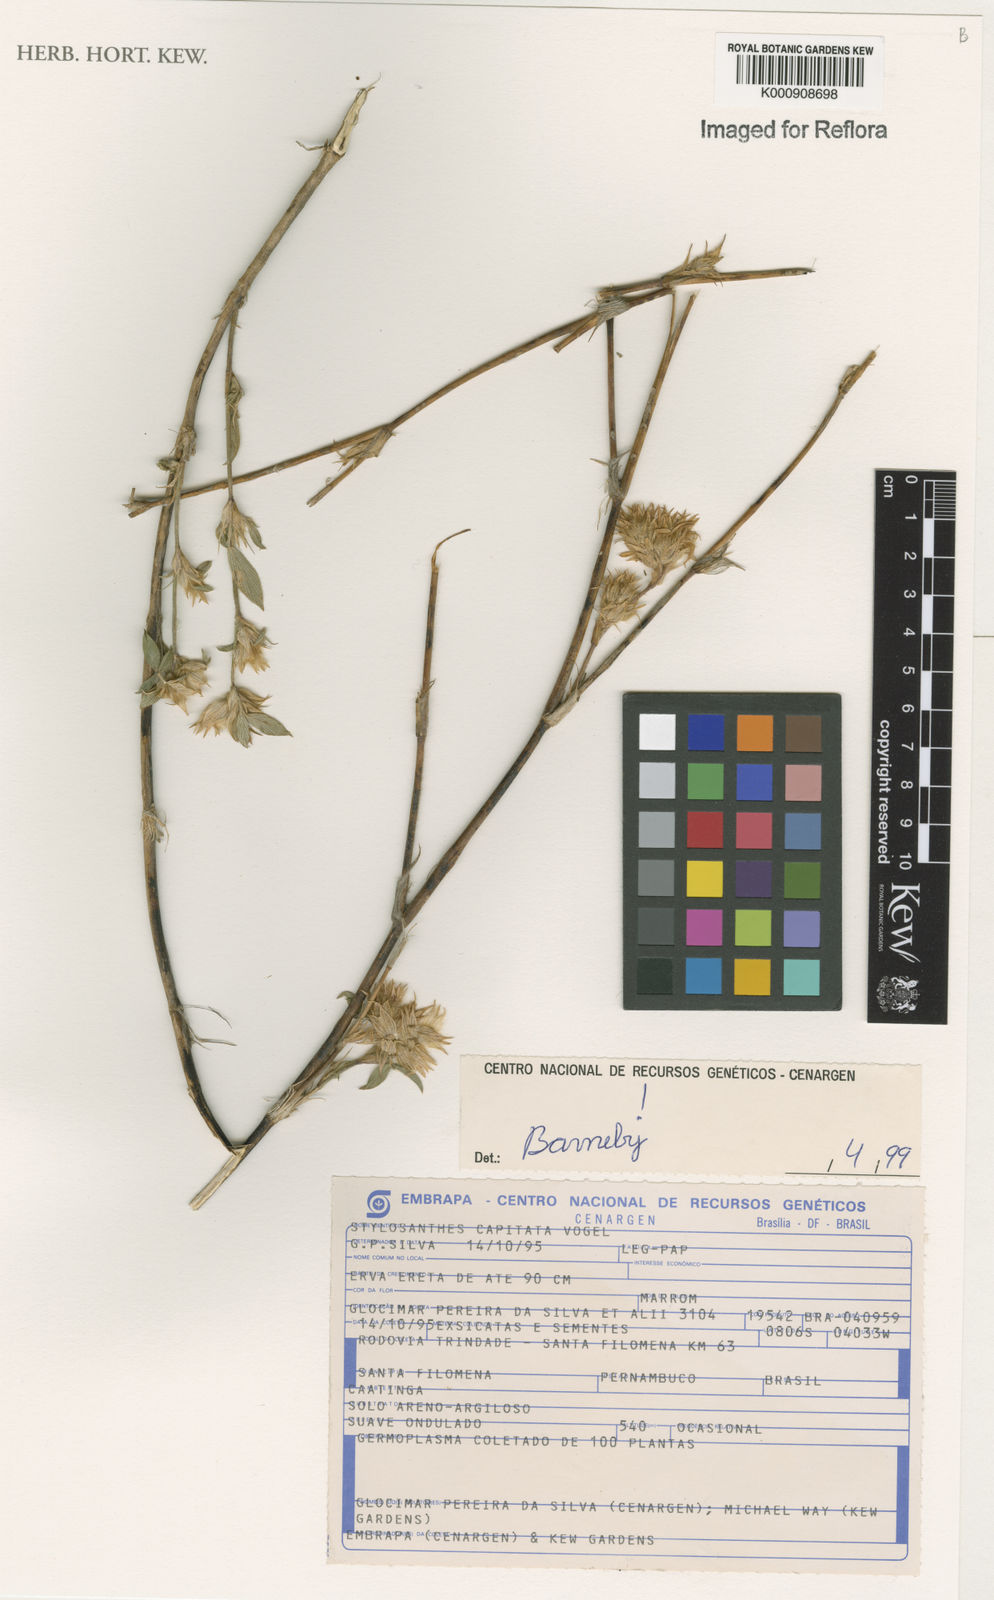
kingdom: Plantae
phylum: Tracheophyta
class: Magnoliopsida
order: Fabales
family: Fabaceae
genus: Stylosanthes
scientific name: Stylosanthes capitata
